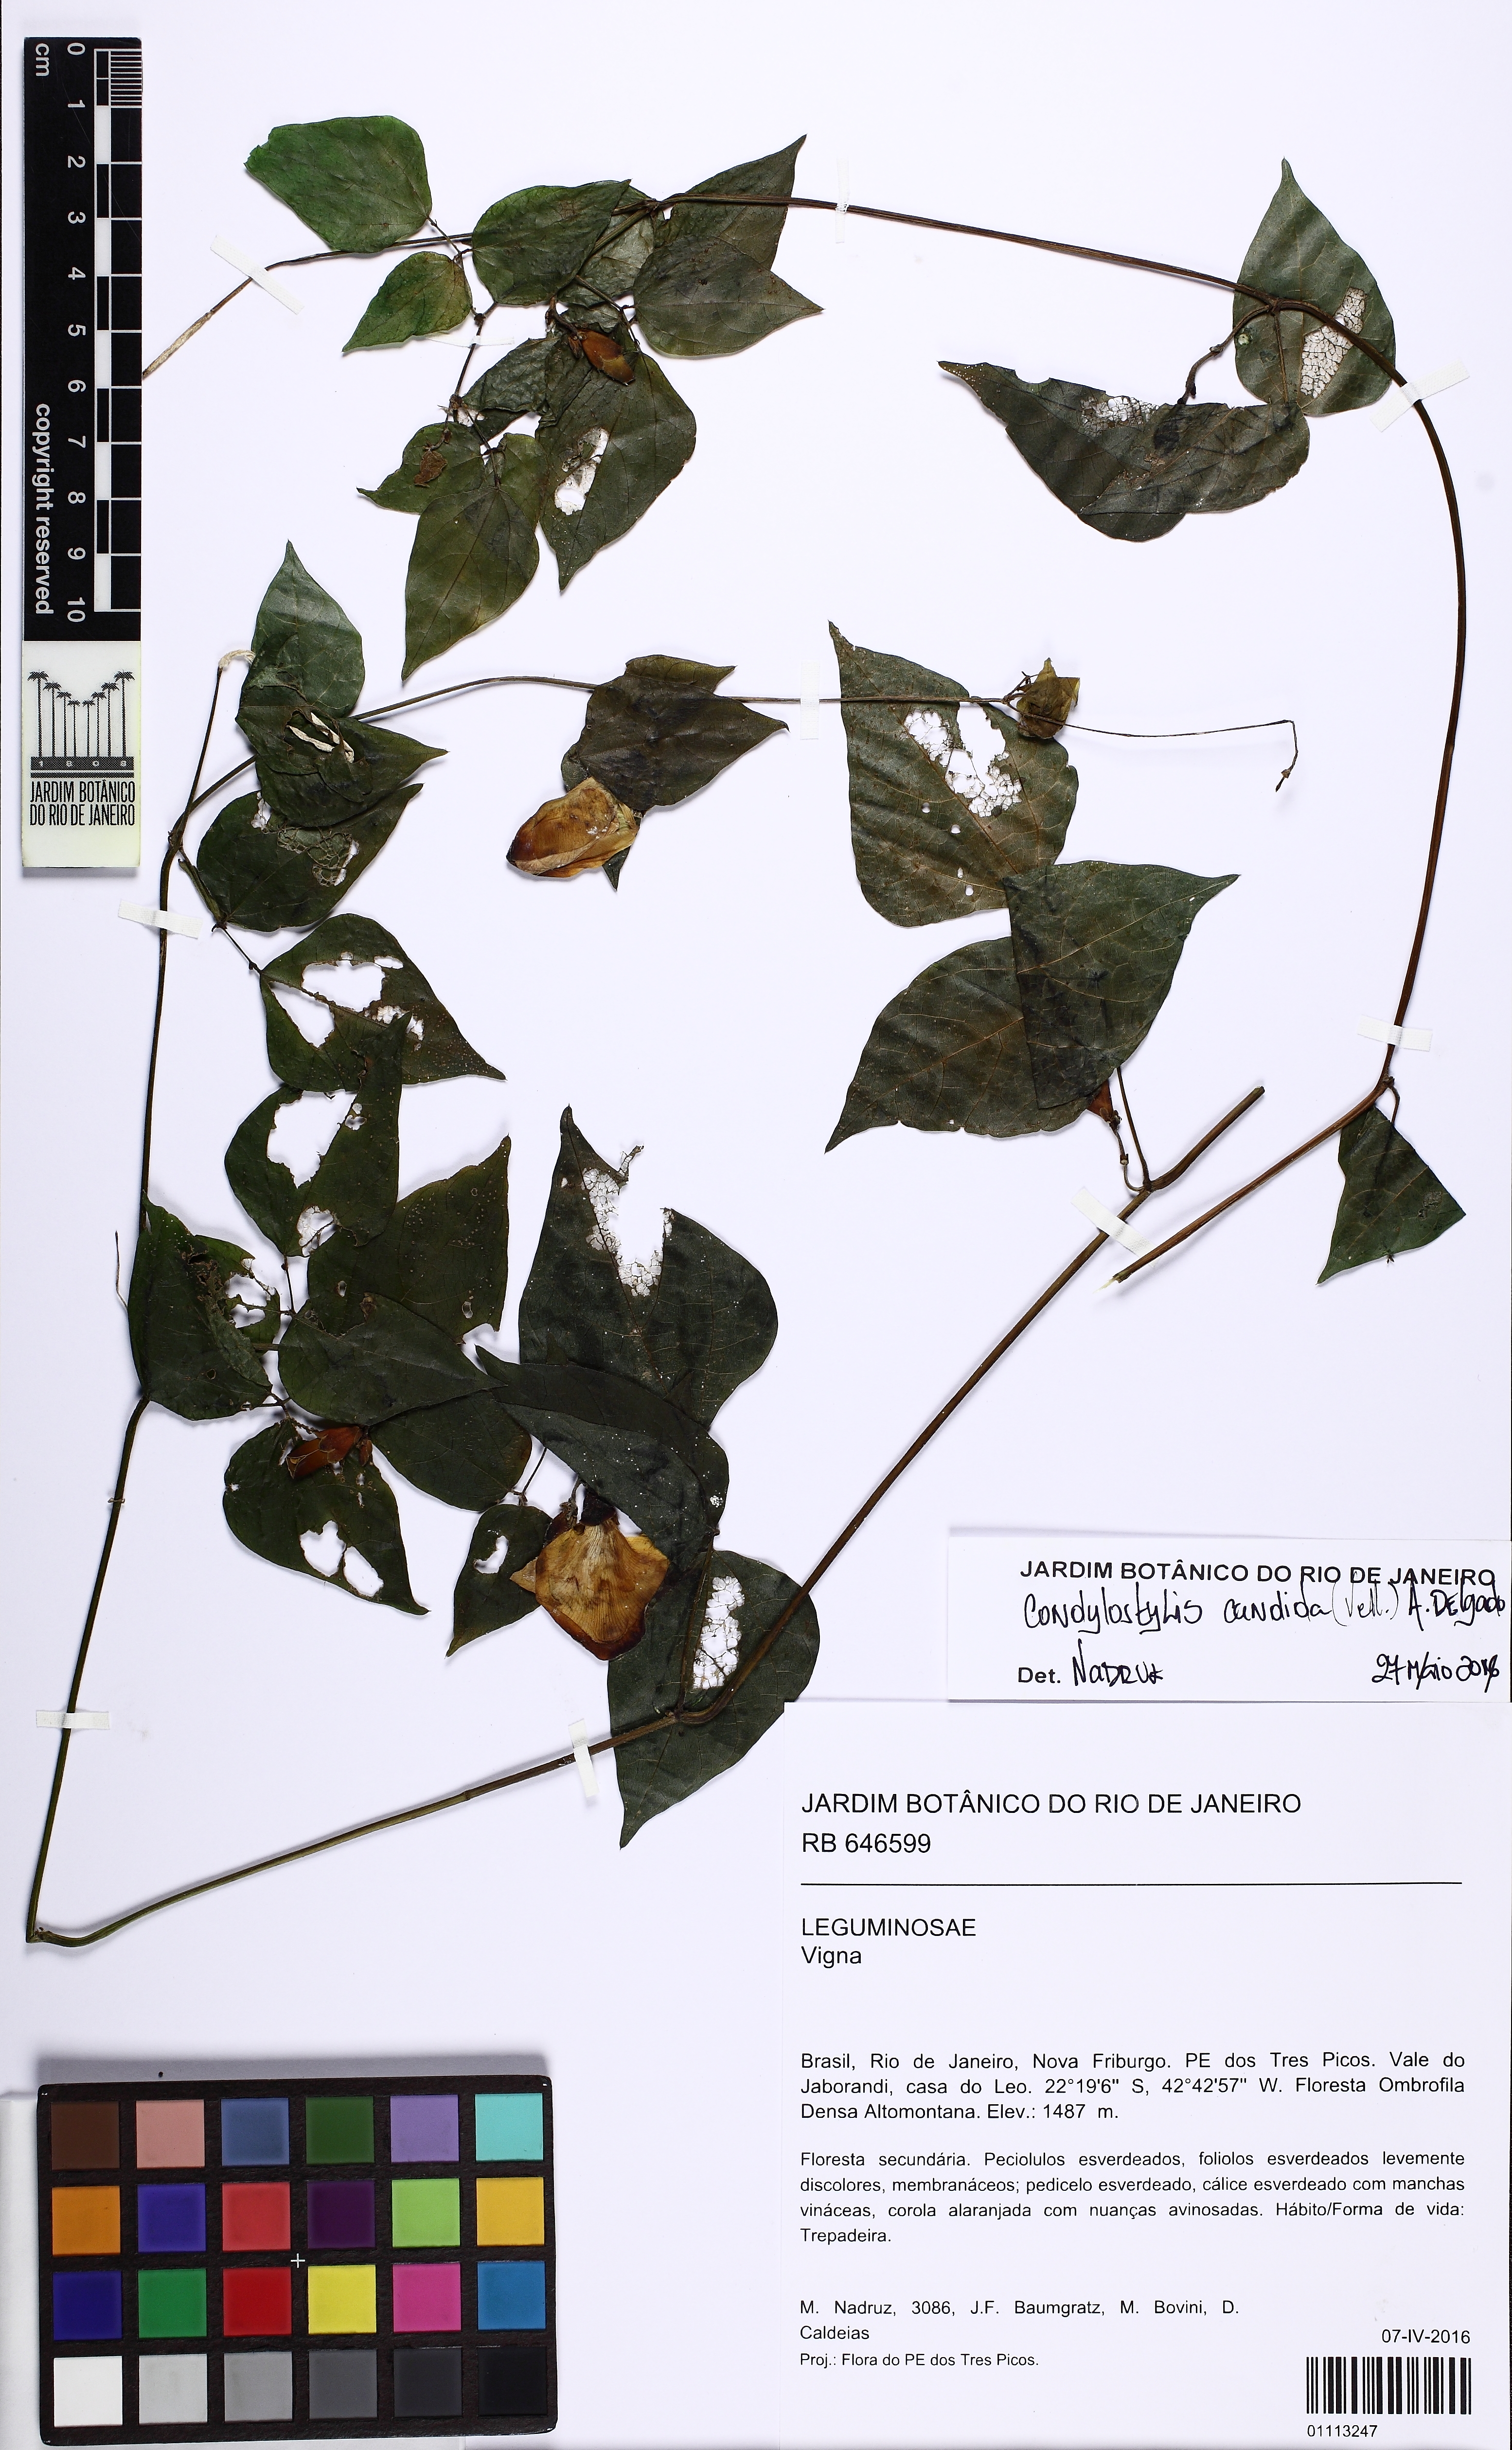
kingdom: Plantae
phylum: Tracheophyta
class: Magnoliopsida
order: Fabales
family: Fabaceae
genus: Condylostylis
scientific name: Condylostylis candida
